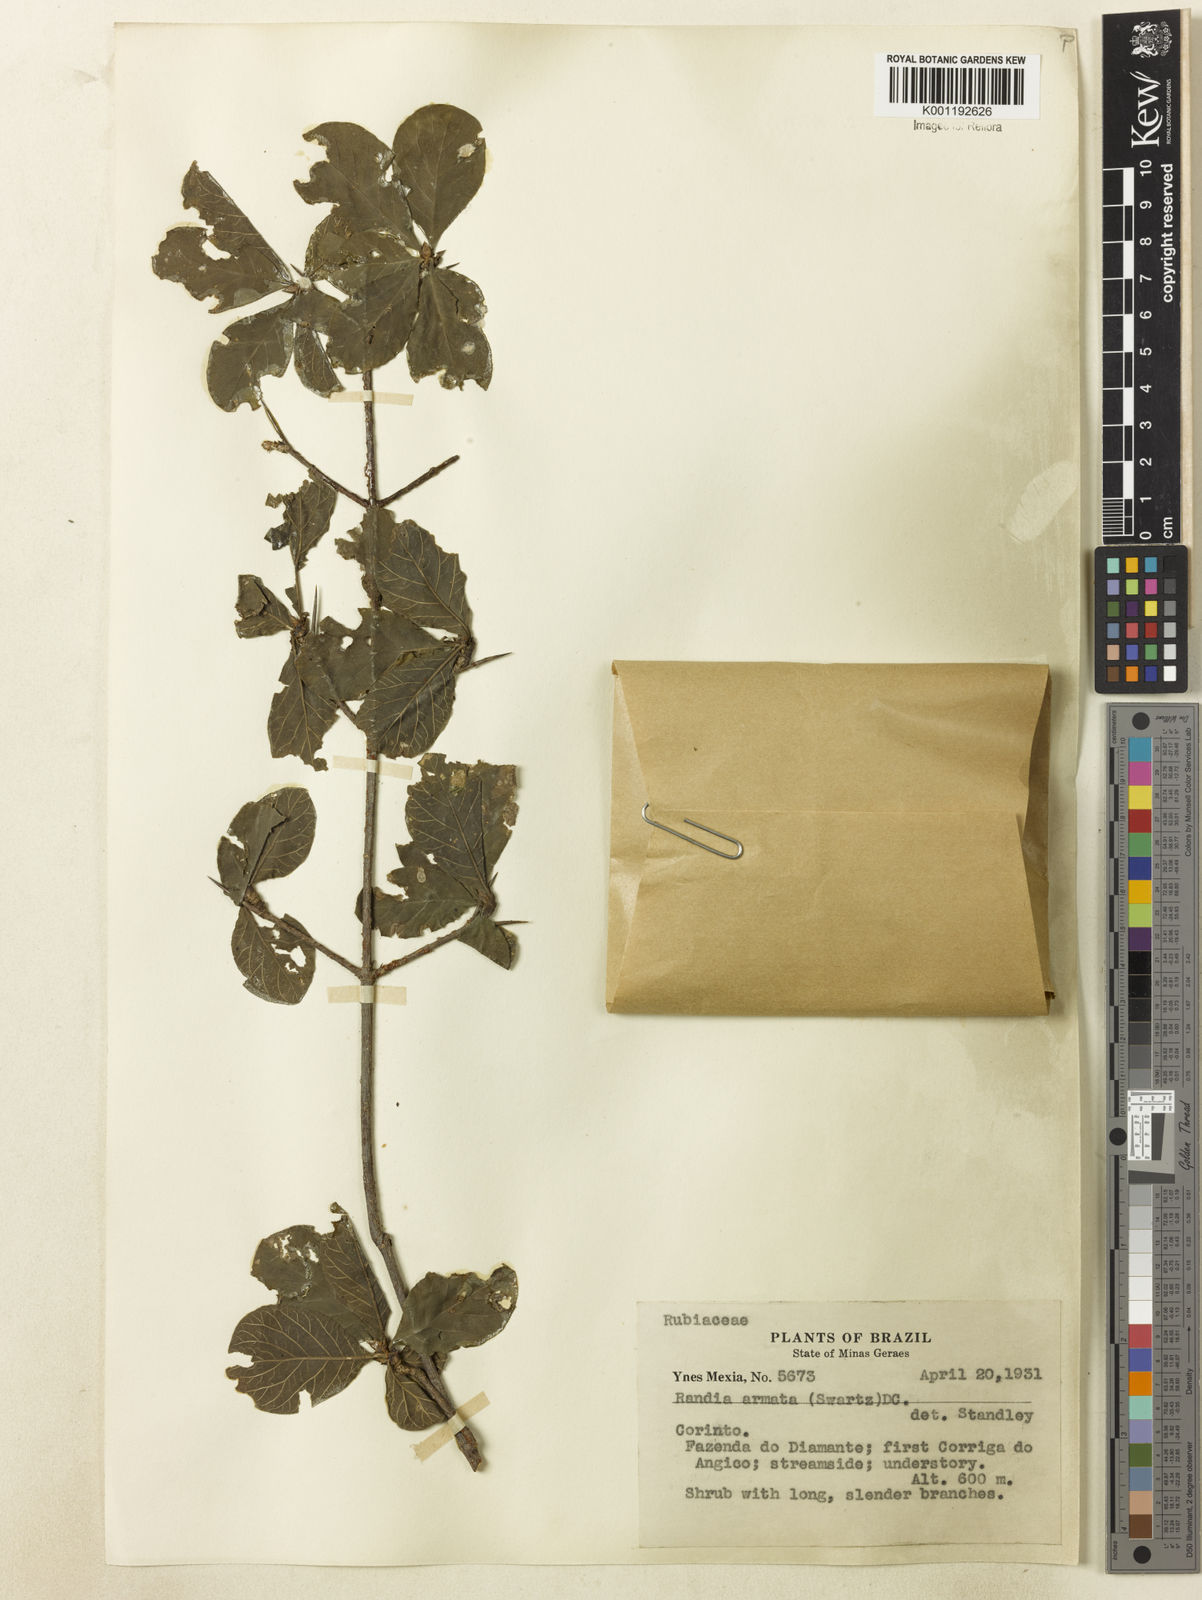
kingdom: Plantae
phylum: Tracheophyta
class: Magnoliopsida
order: Gentianales
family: Rubiaceae
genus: Randia
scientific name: Randia armata
